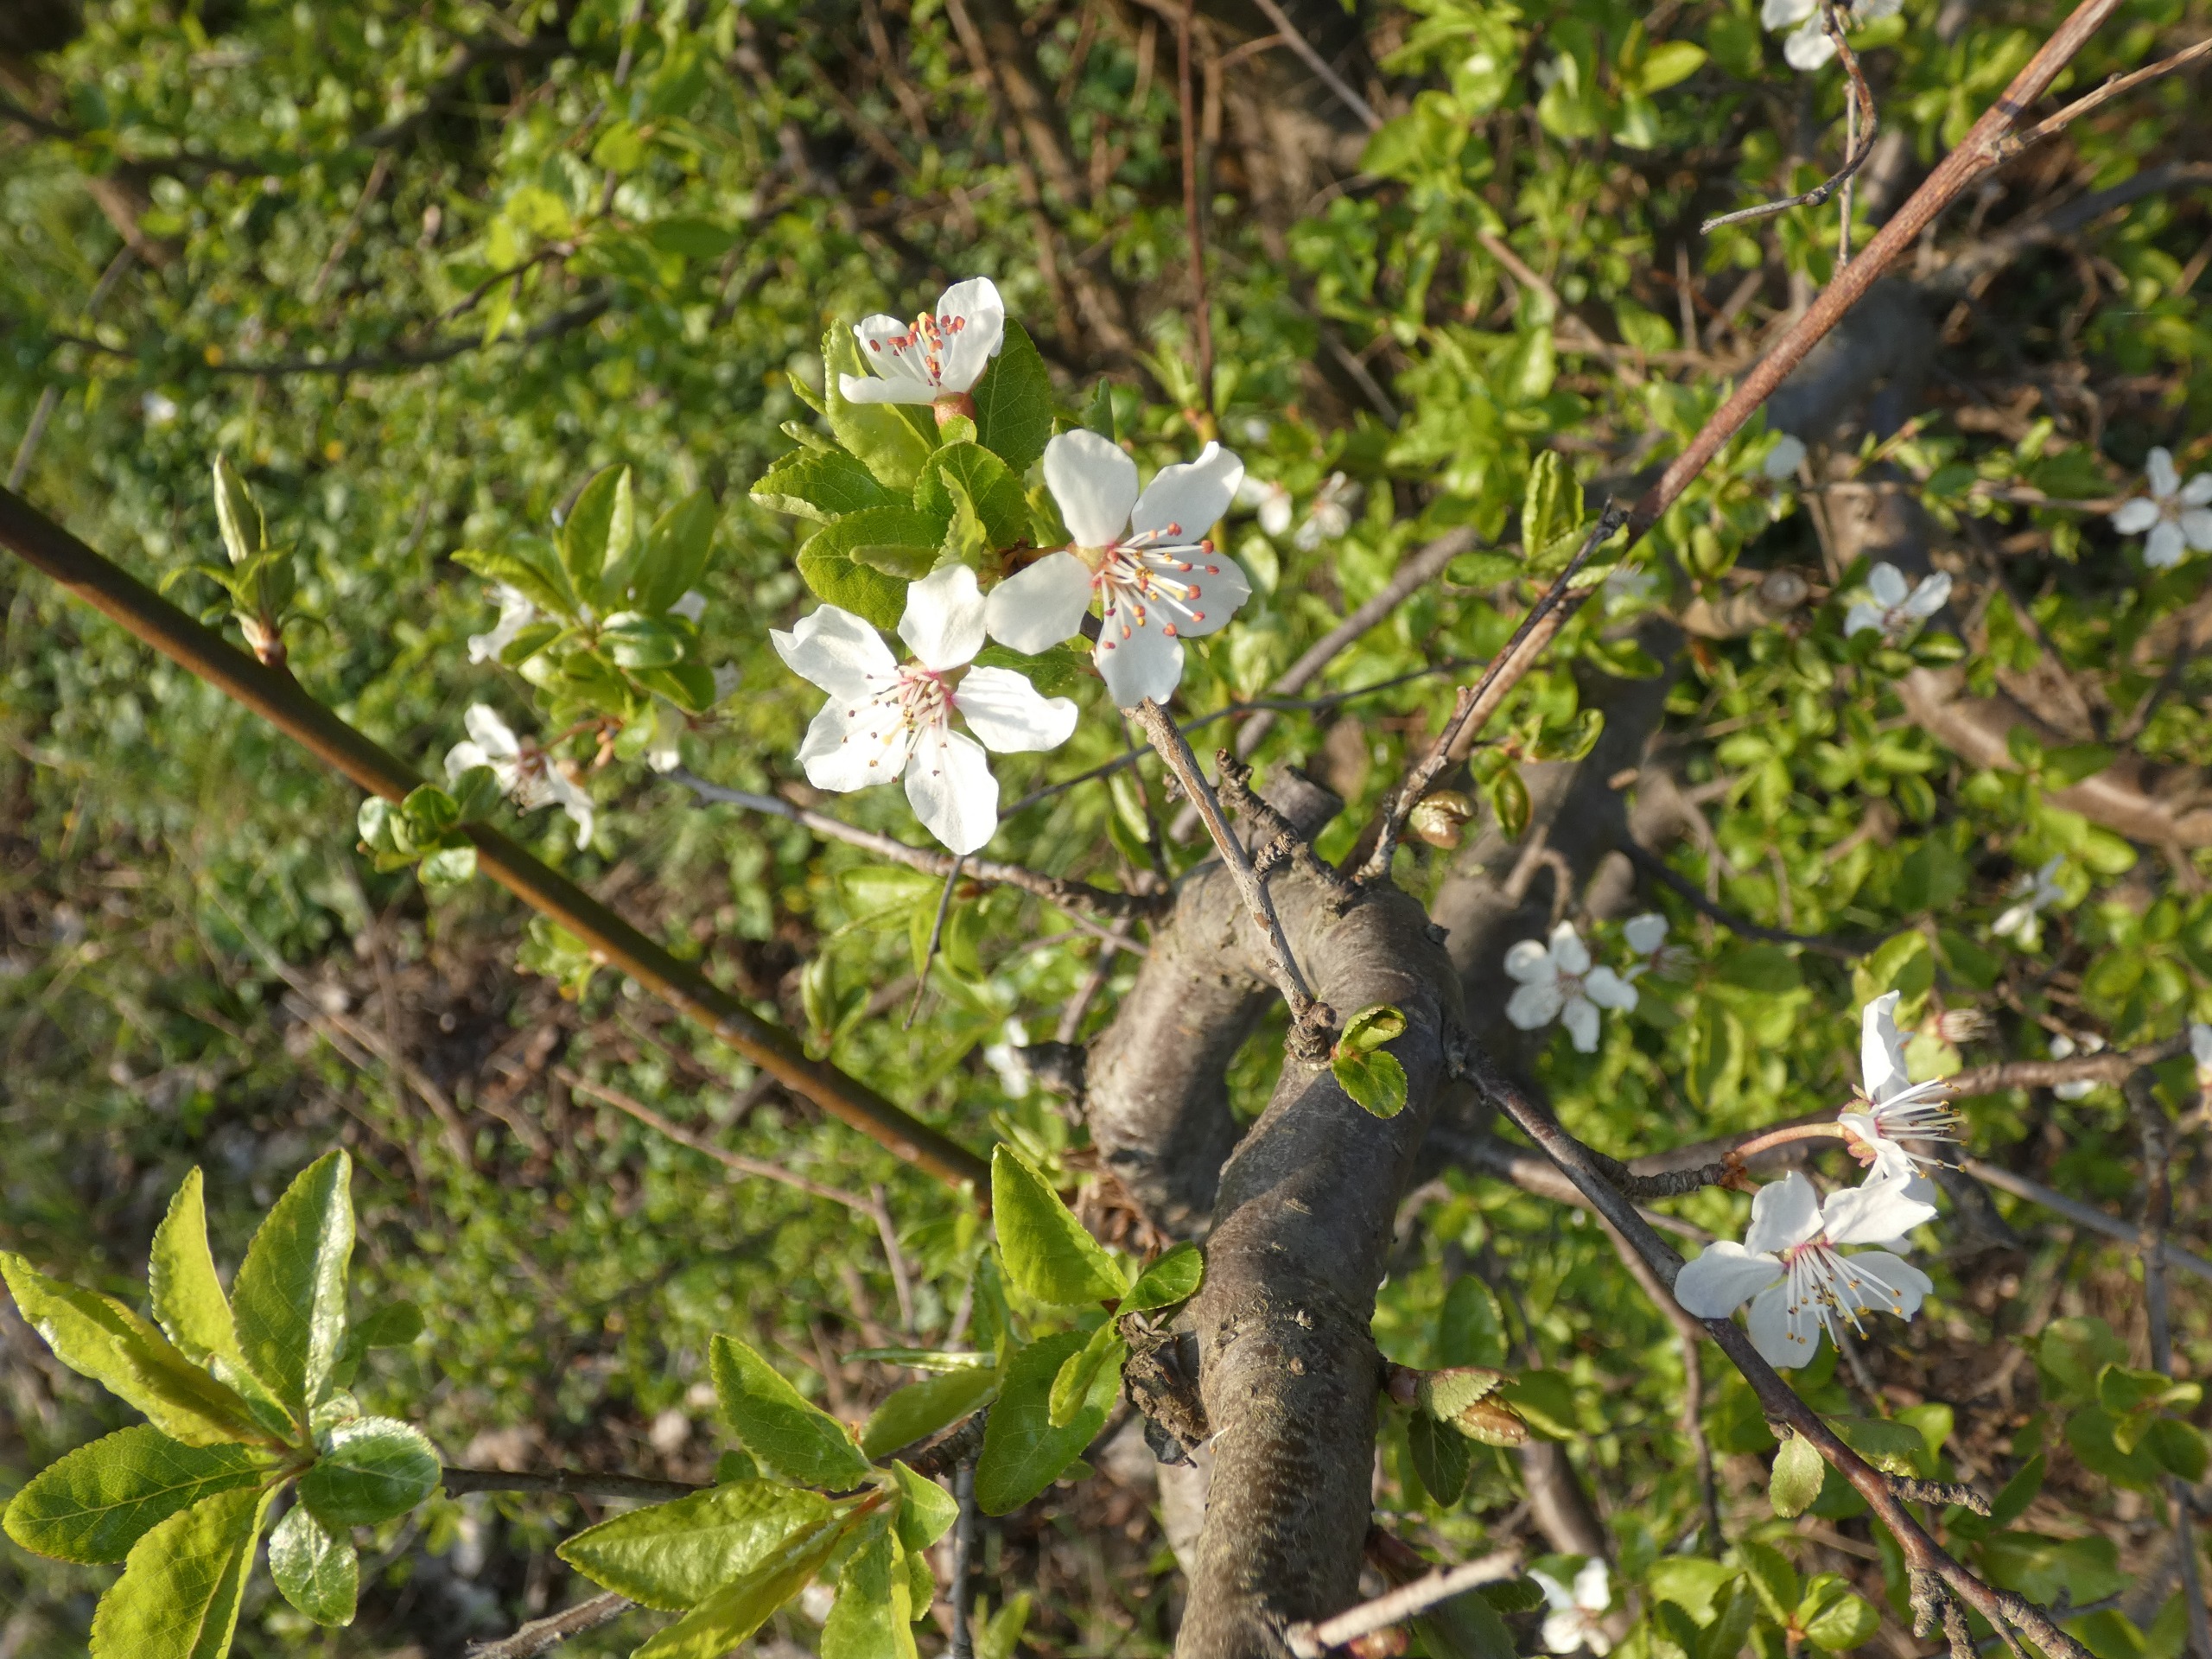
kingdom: Plantae
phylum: Tracheophyta
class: Magnoliopsida
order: Rosales
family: Rosaceae
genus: Prunus
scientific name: Prunus cerasifera
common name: Mirabel
